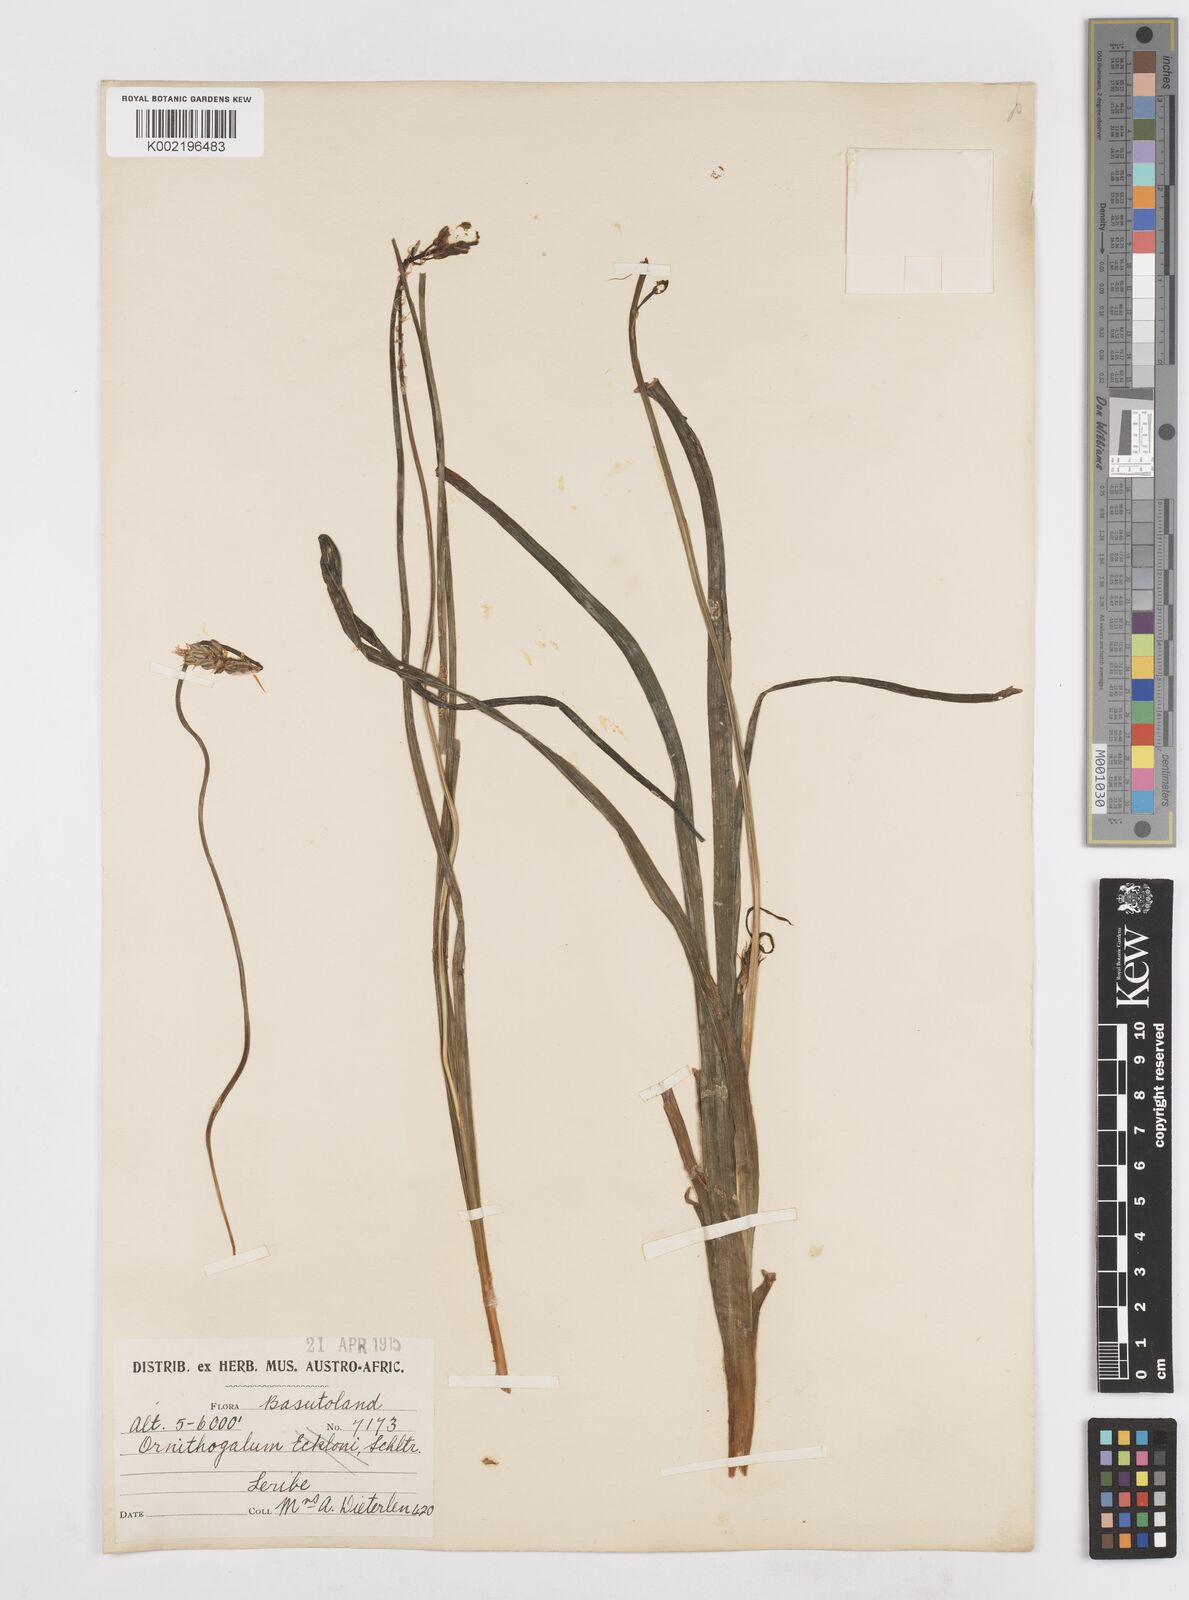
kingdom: Plantae
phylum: Tracheophyta
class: Liliopsida
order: Asparagales
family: Asparagaceae
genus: Albuca
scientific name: Albuca virens
